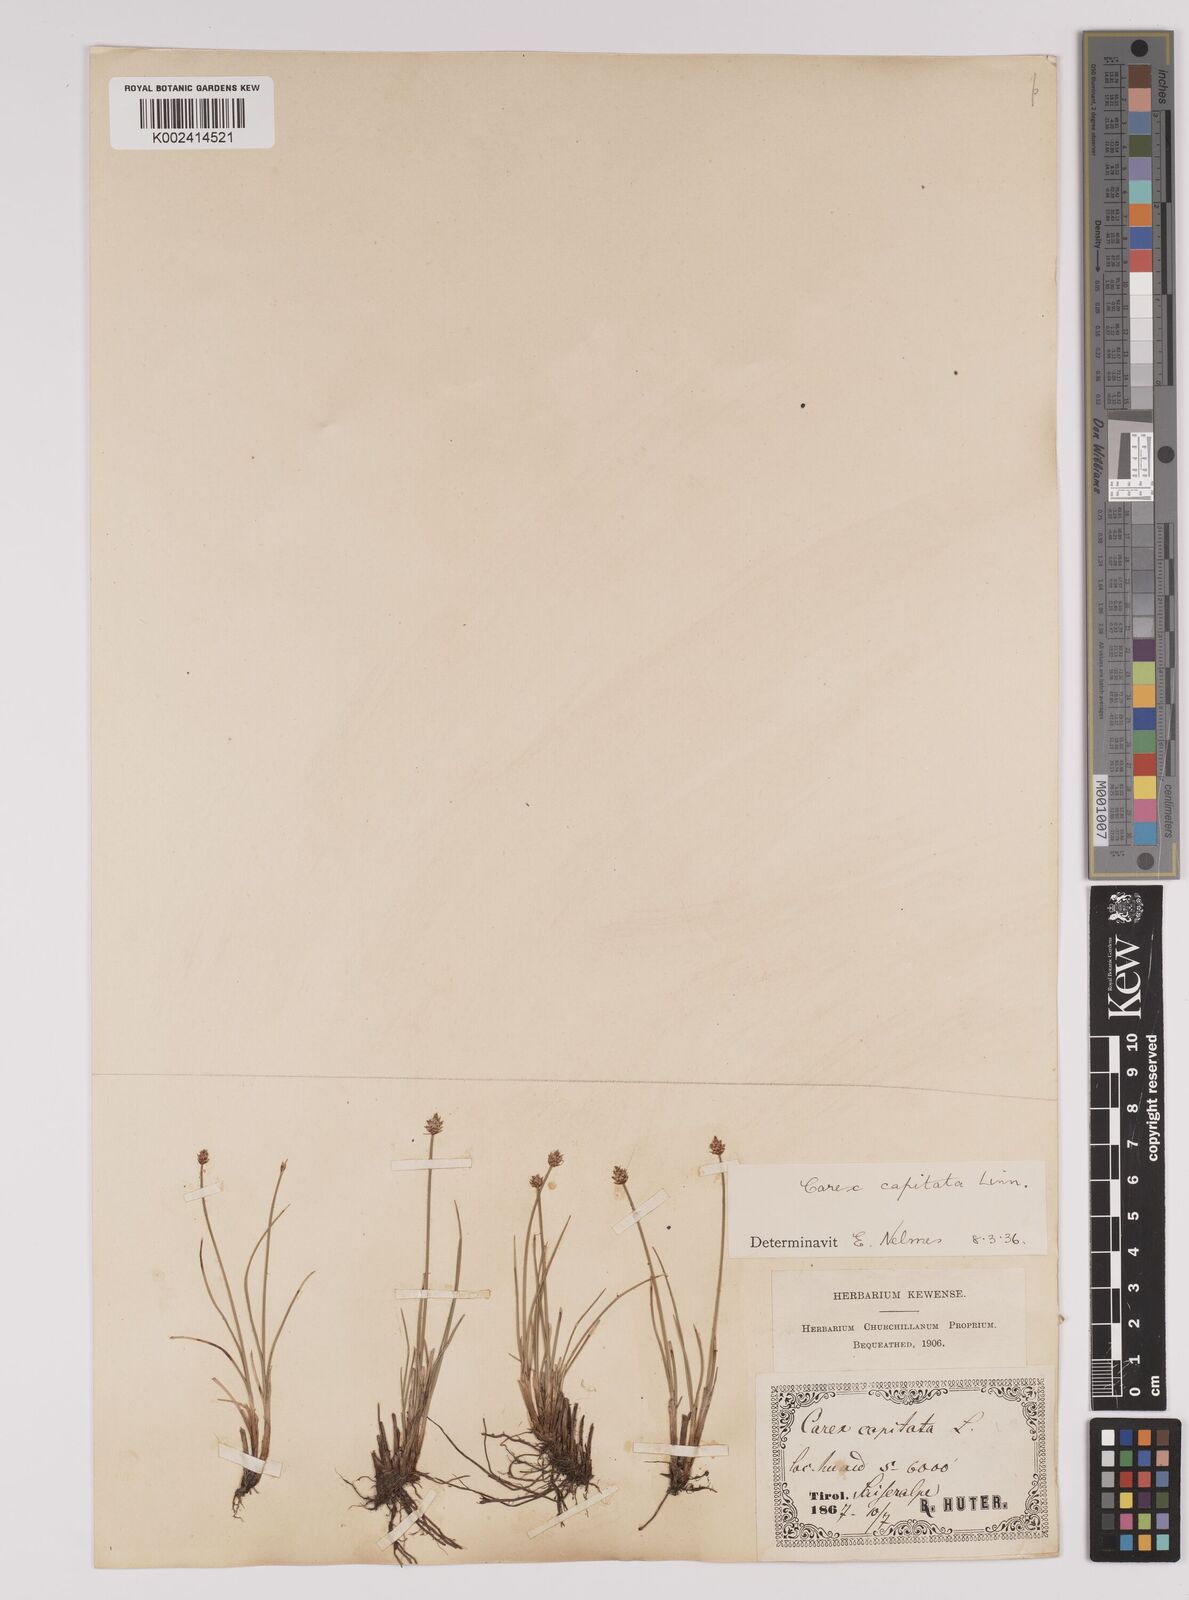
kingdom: Plantae
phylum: Tracheophyta
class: Liliopsida
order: Poales
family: Cyperaceae
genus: Carex
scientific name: Carex capitata
